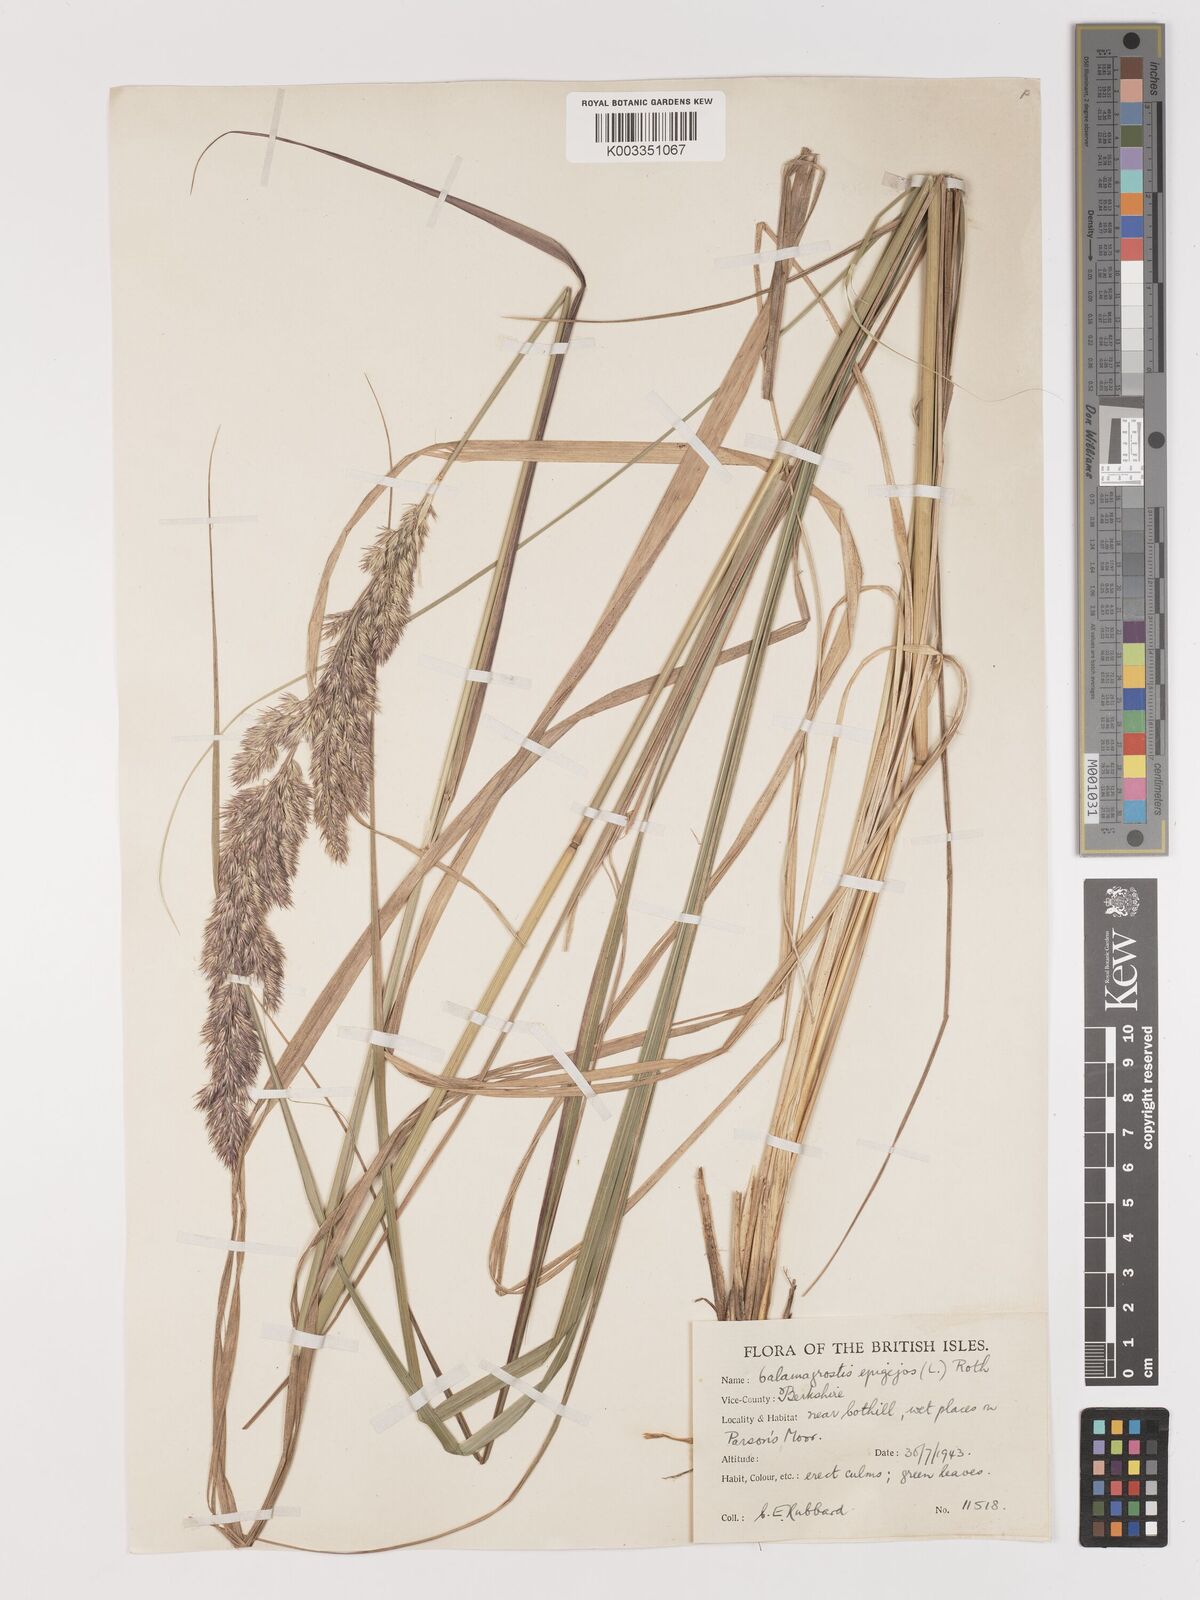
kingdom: Plantae
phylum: Tracheophyta
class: Liliopsida
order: Poales
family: Poaceae
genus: Calamagrostis
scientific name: Calamagrostis epigejos
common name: Wood small-reed
